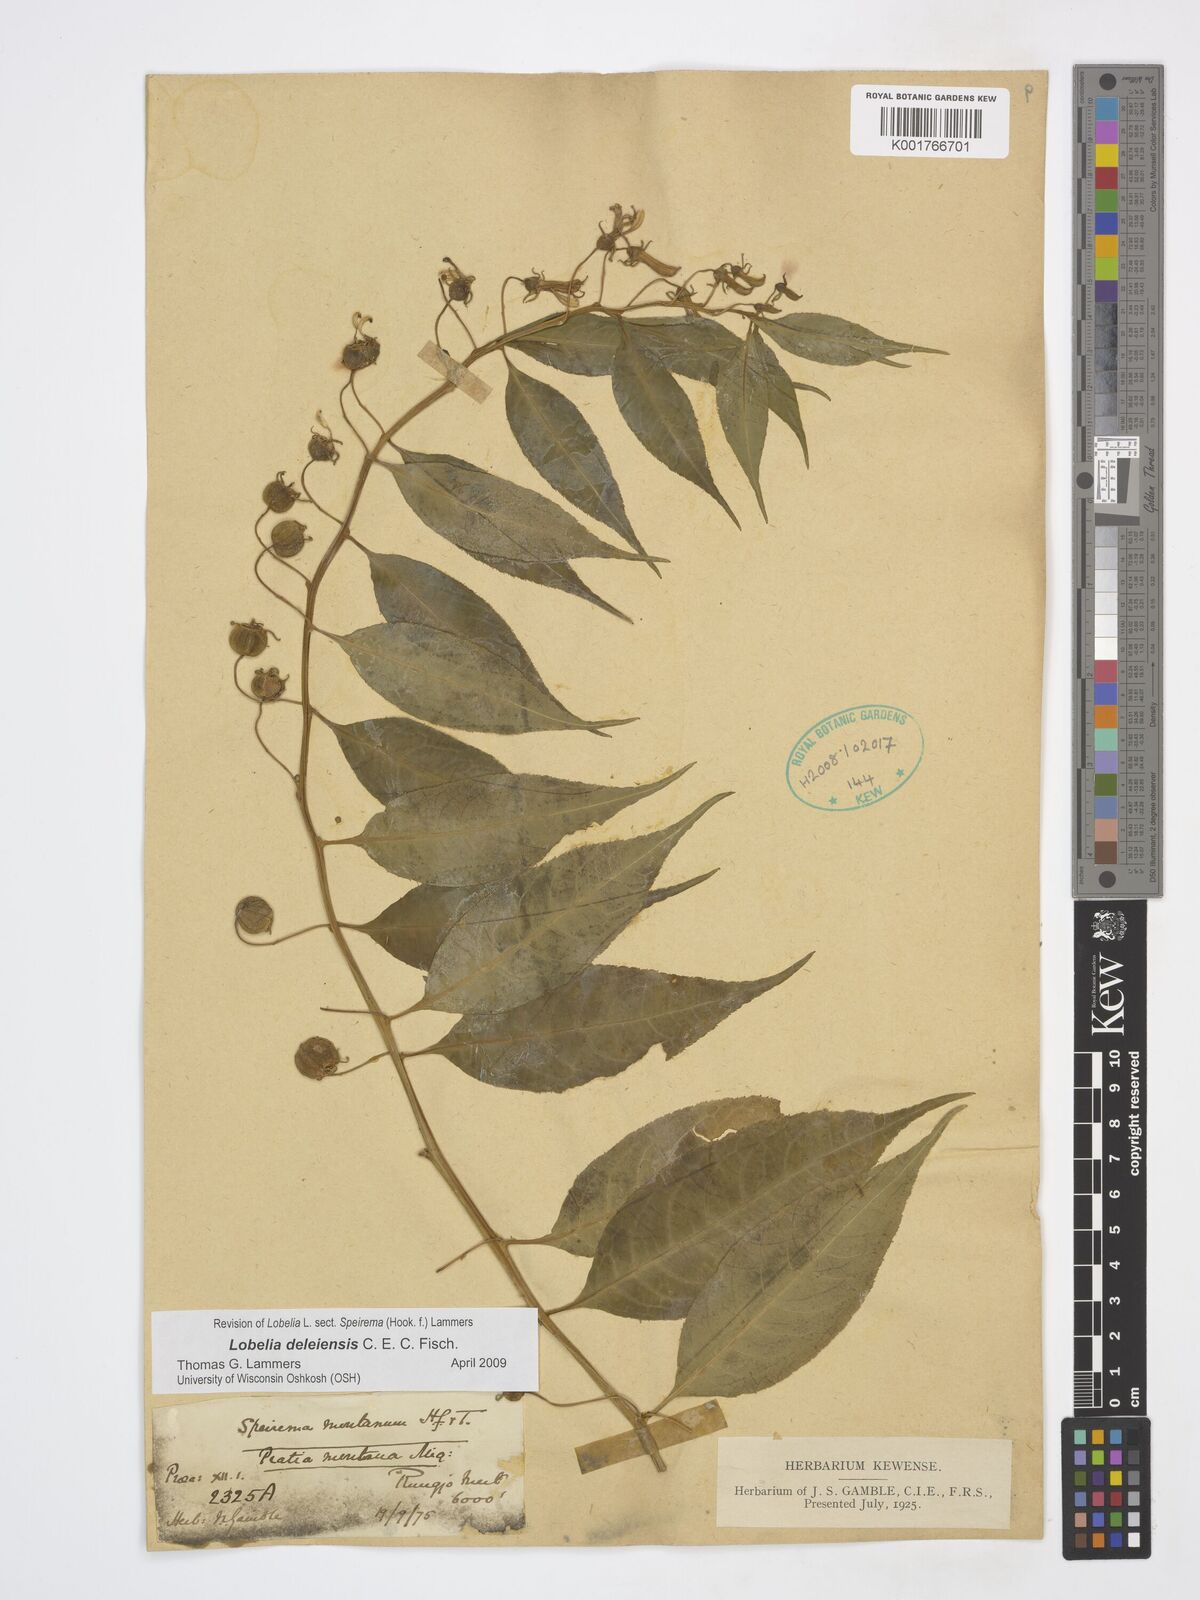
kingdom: Plantae
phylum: Tracheophyta
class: Magnoliopsida
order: Asterales
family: Campanulaceae
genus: Lobelia
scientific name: Lobelia deleiensis
